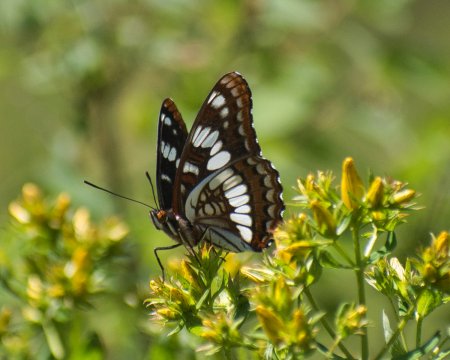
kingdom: Animalia
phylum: Arthropoda
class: Insecta
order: Lepidoptera
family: Nymphalidae
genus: Limenitis
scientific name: Limenitis lorquini
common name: Lorquin's Admiral
